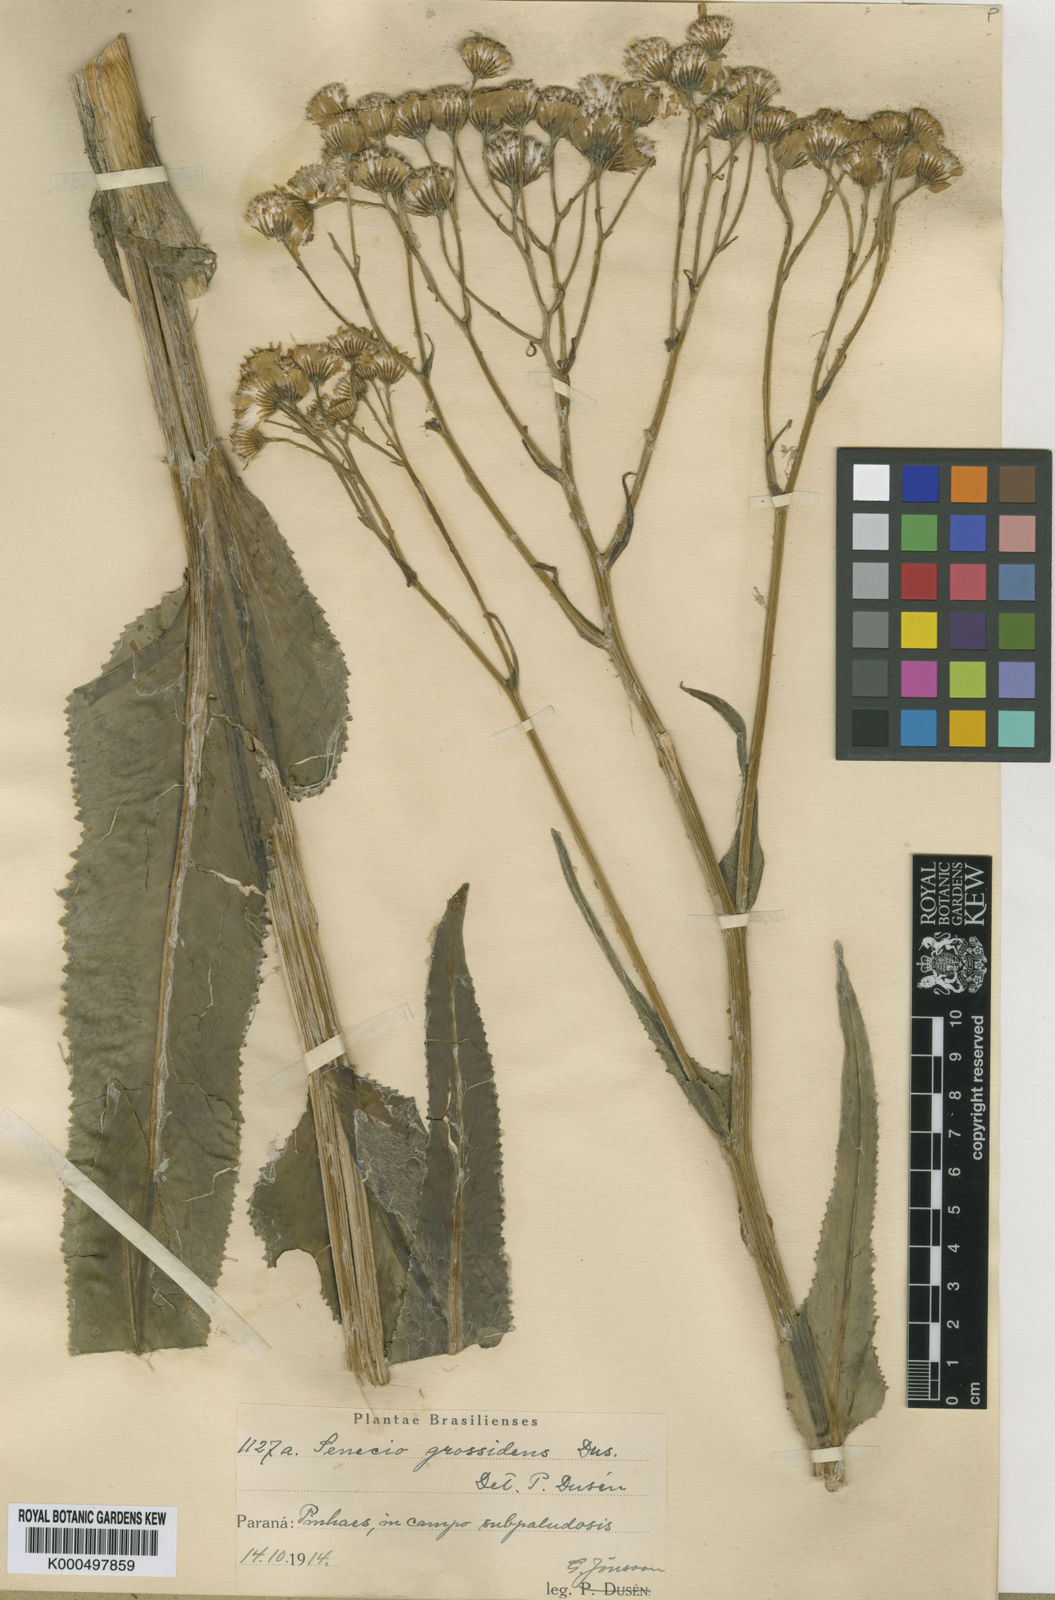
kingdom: Plantae
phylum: Tracheophyta
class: Magnoliopsida
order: Asterales
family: Asteraceae
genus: Senecio
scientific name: Senecio
